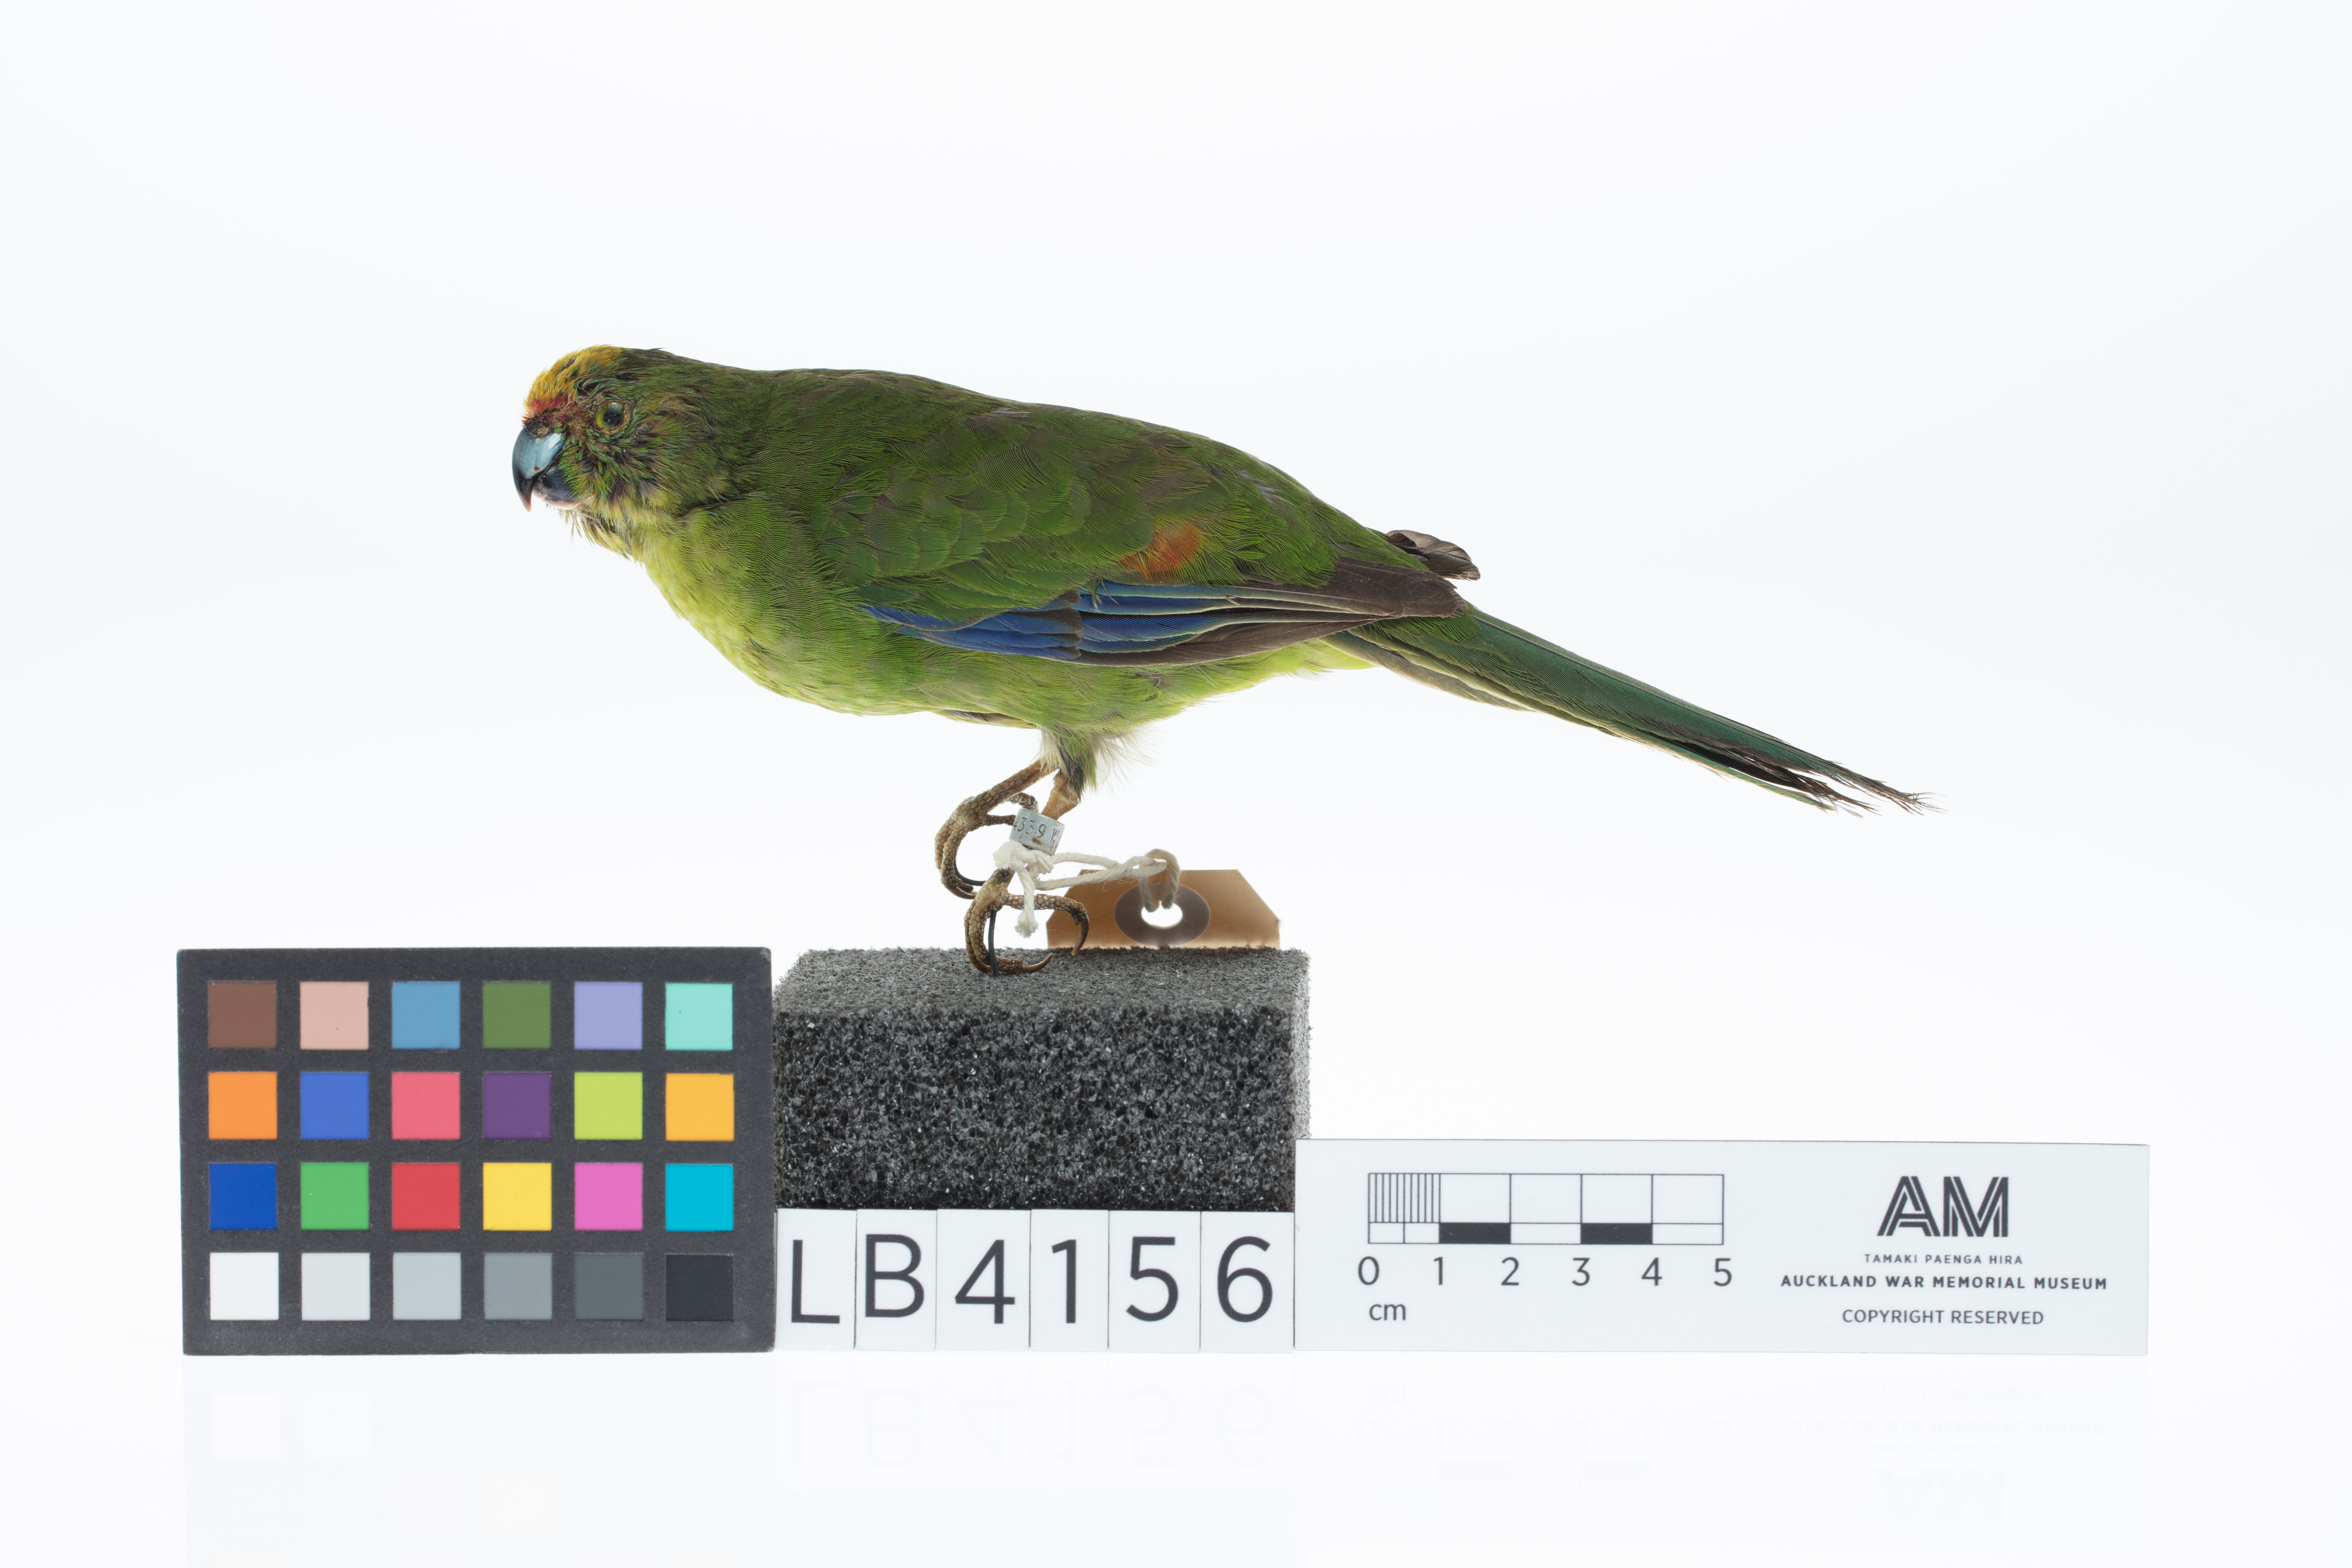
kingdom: Animalia
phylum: Chordata
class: Aves
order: Psittaciformes
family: Psittacidae
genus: Cyanoramphus
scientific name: Cyanoramphus auriceps
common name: Yellow-crowned parakeet
